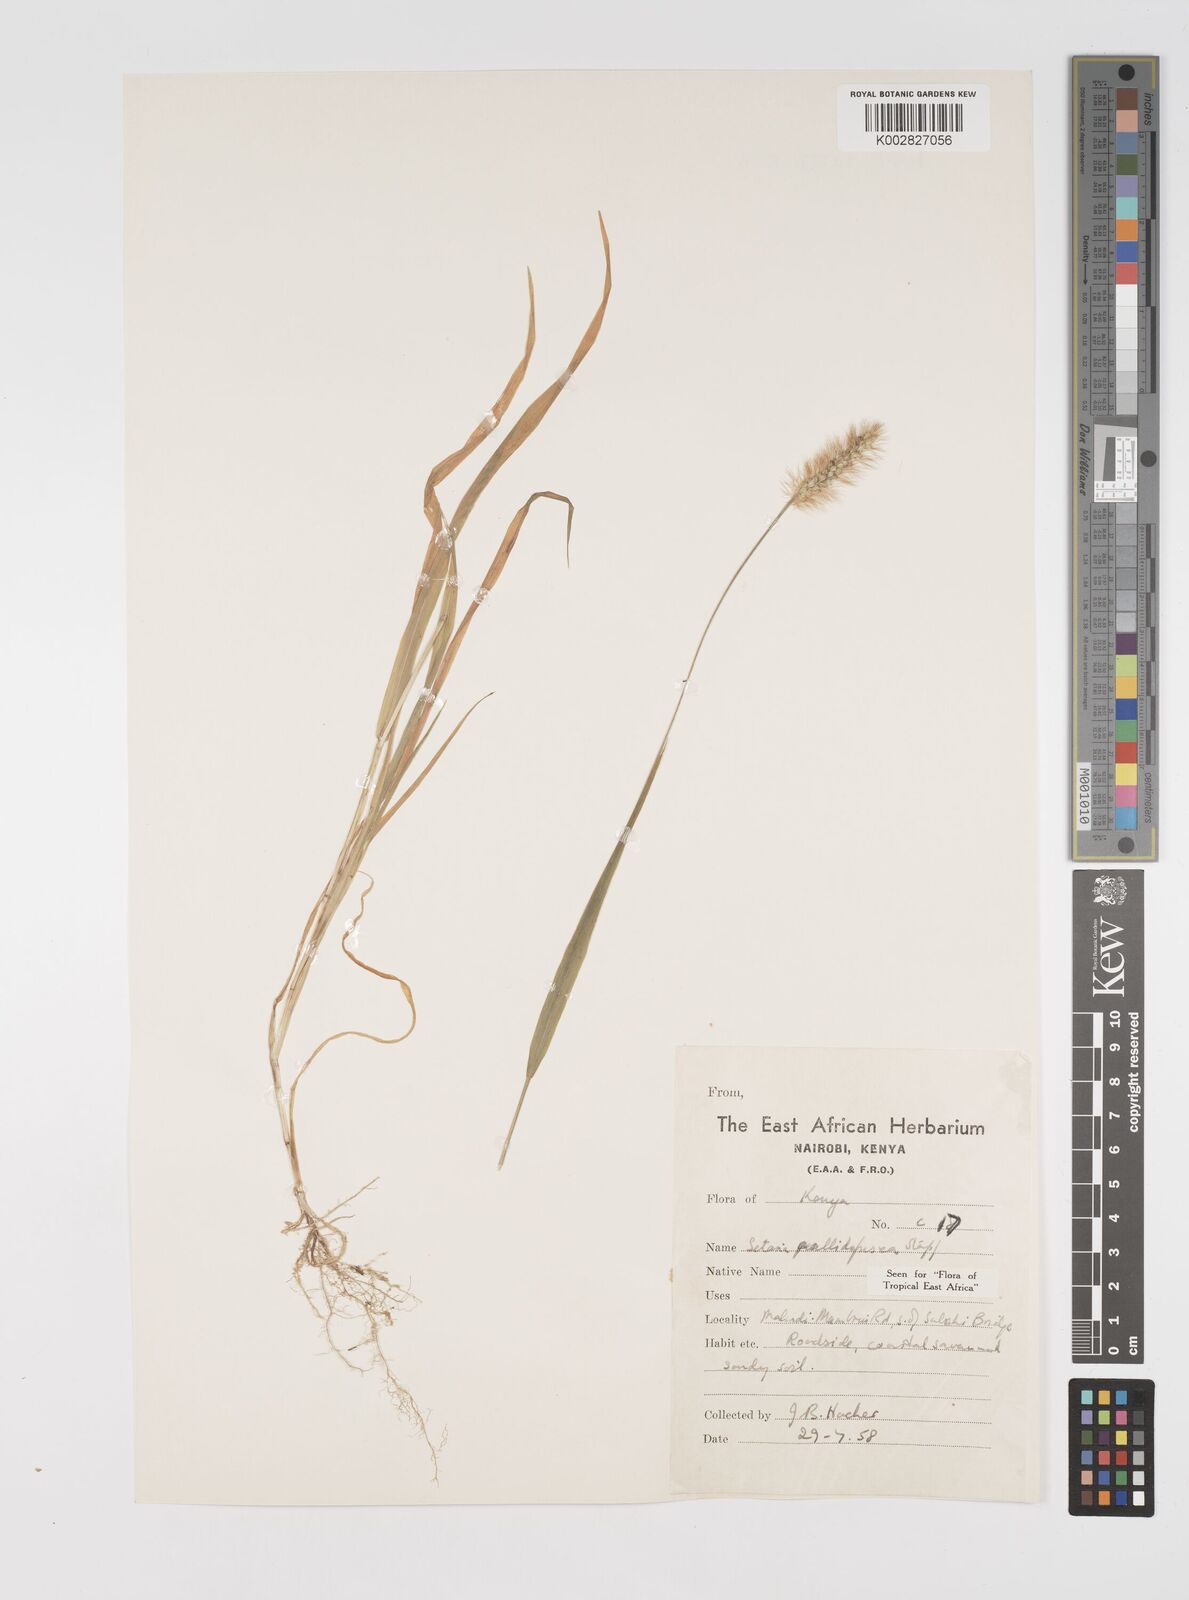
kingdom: Plantae
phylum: Tracheophyta
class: Liliopsida
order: Poales
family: Poaceae
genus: Setaria
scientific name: Setaria pumila
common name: Yellow bristle-grass
